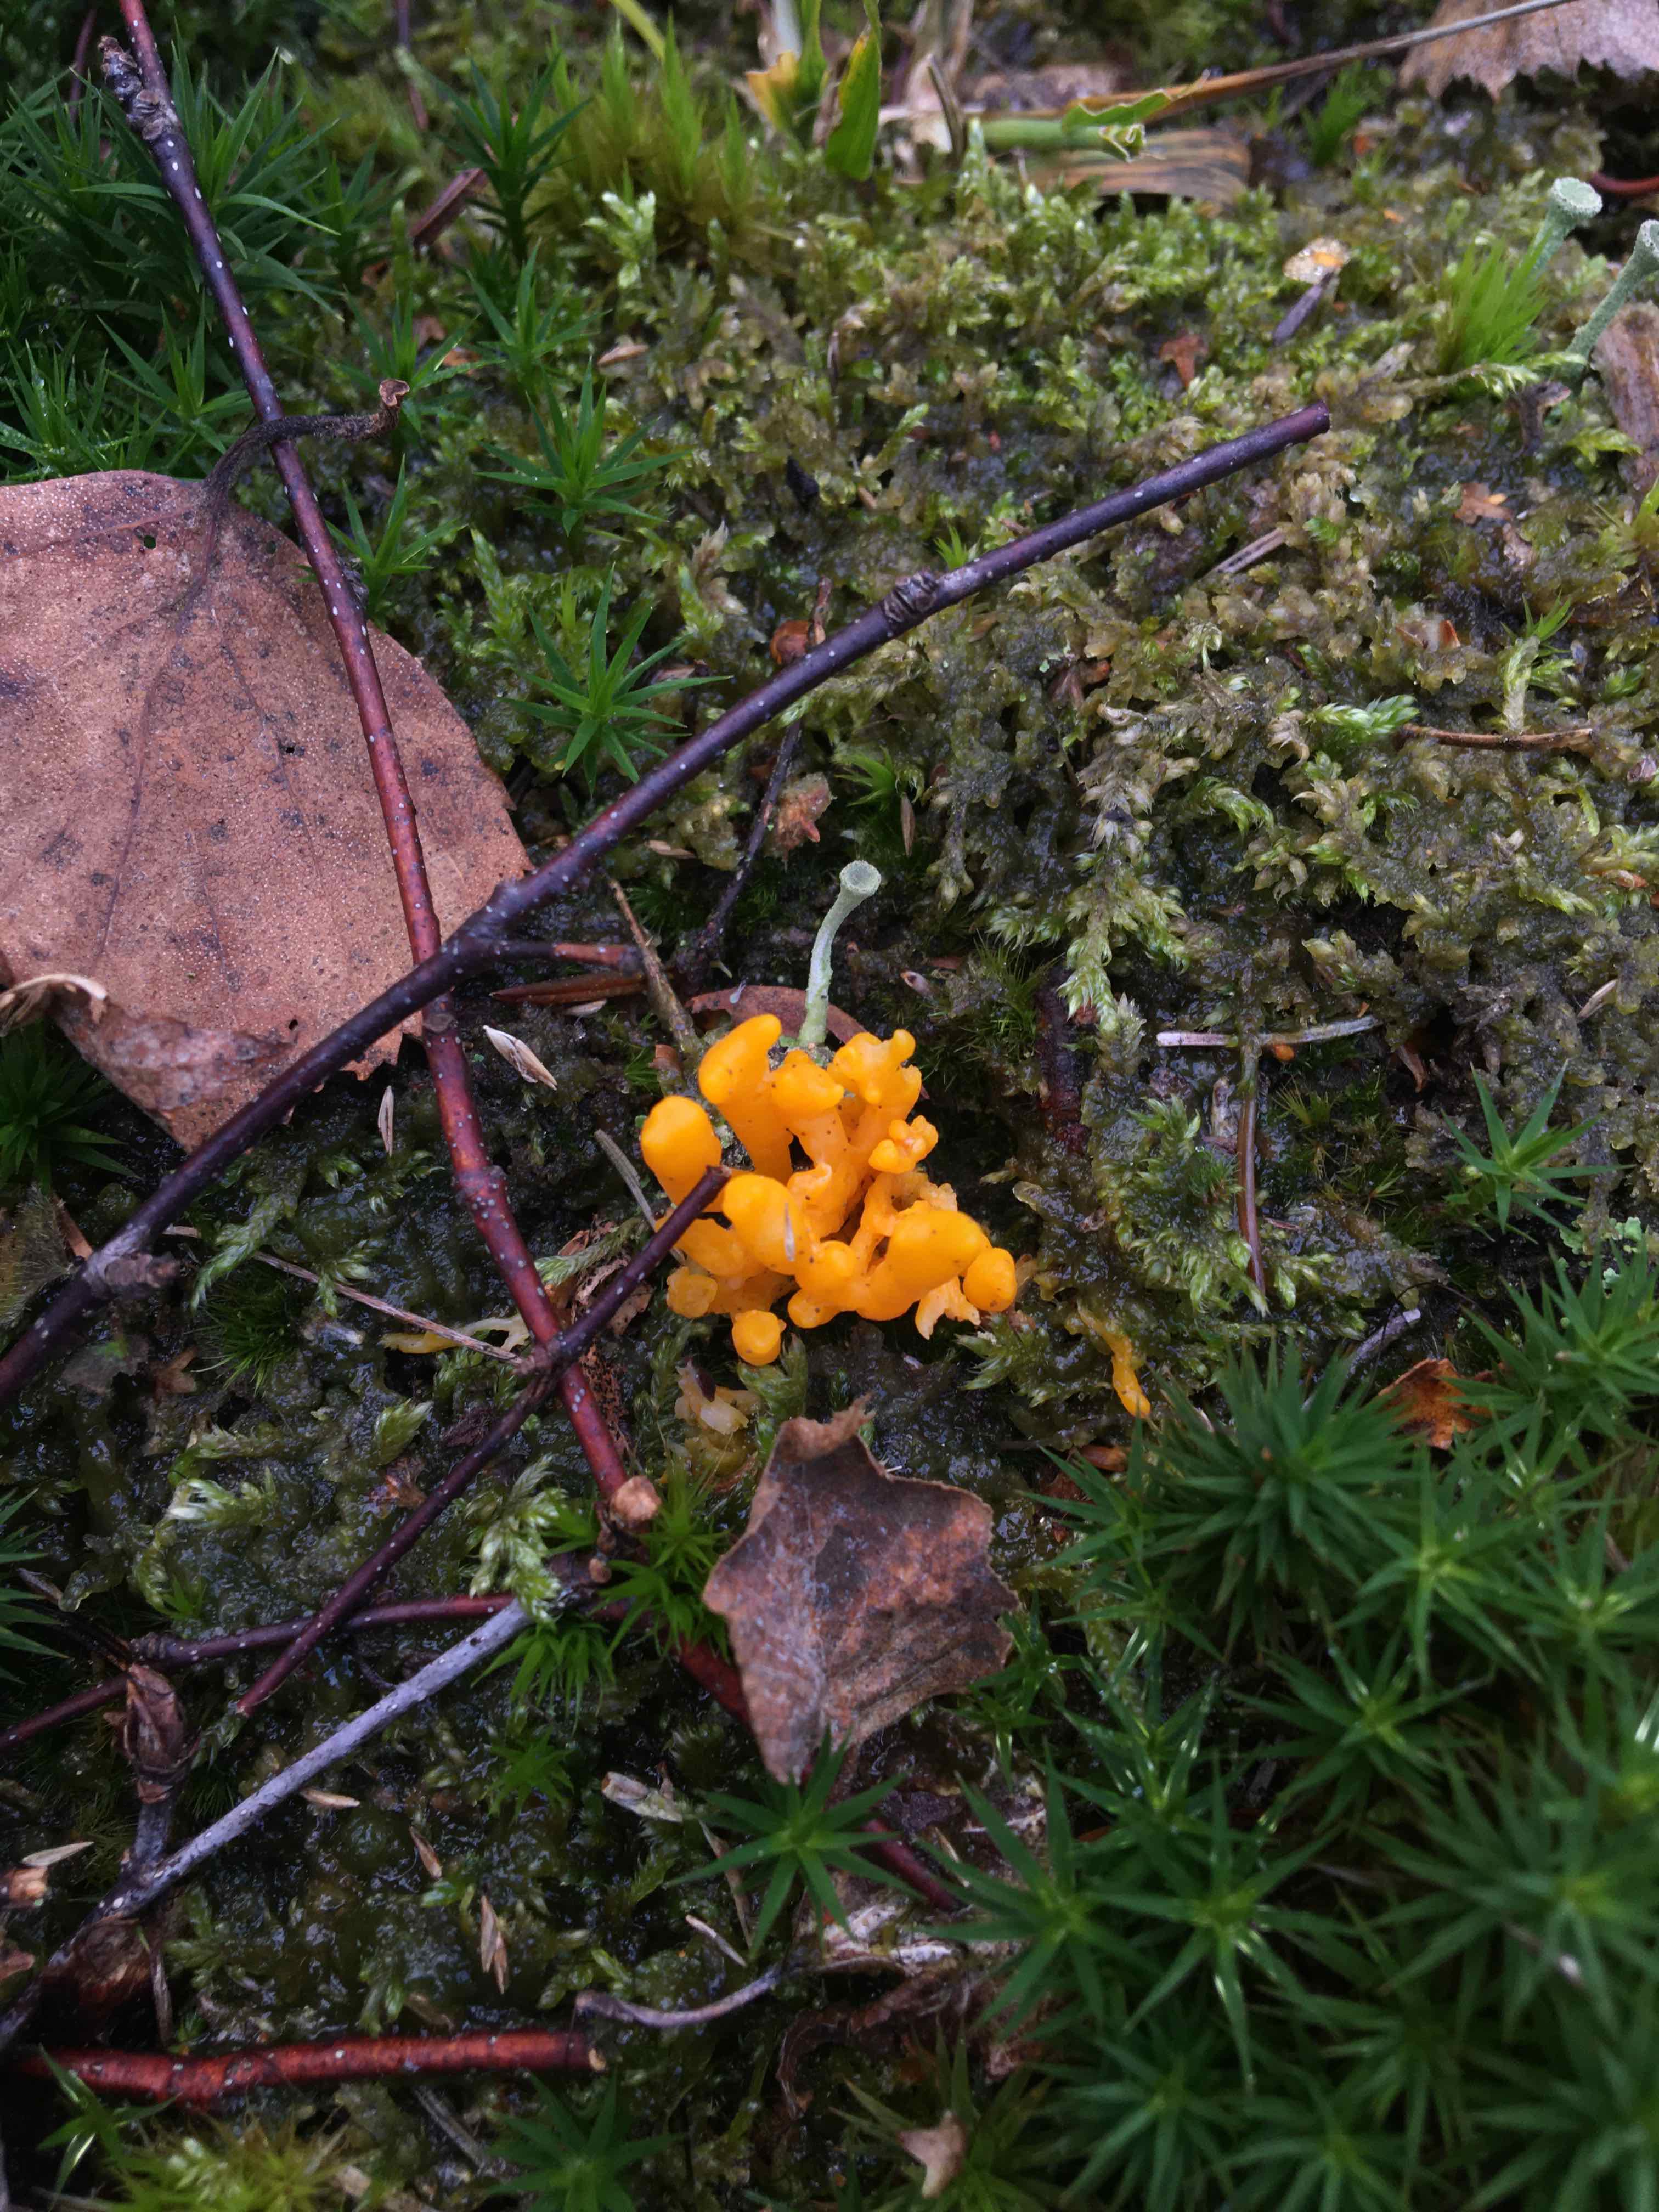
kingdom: Fungi
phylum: Basidiomycota
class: Dacrymycetes
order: Dacrymycetales
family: Dacrymycetaceae
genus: Calocera
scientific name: Calocera viscosa
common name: almindelig guldgaffel
